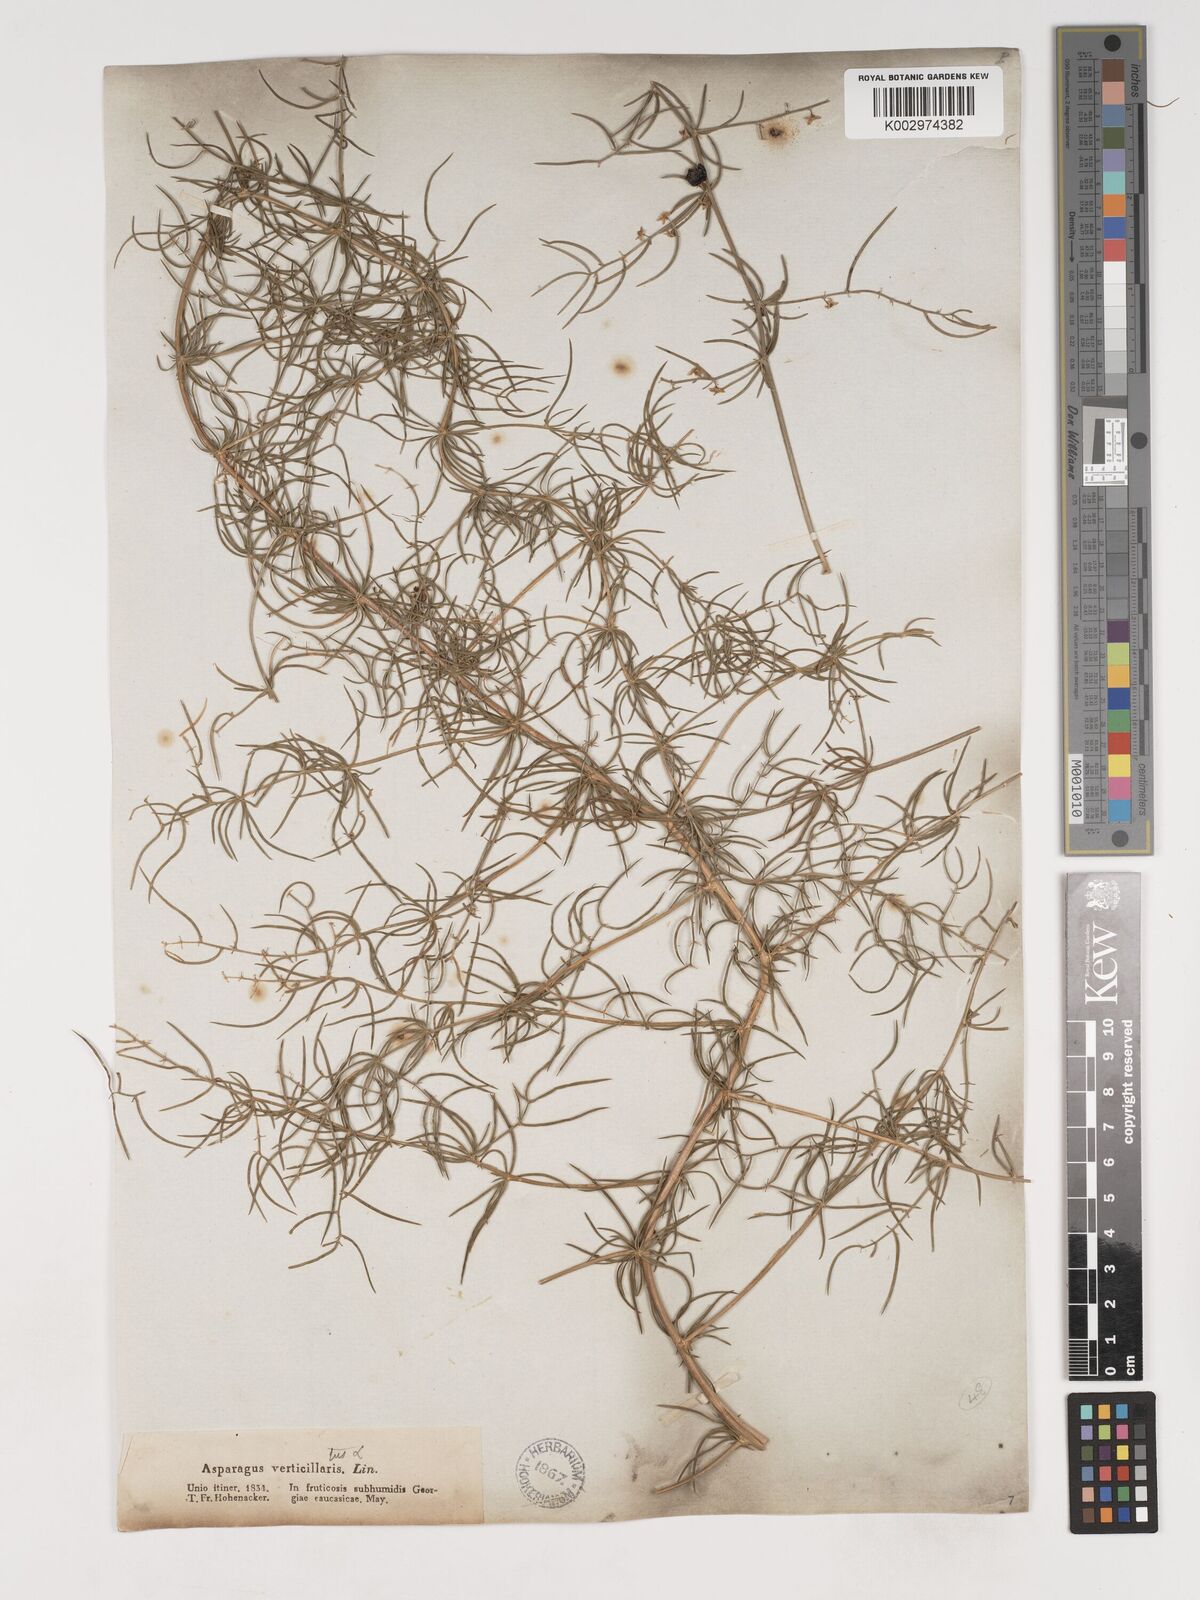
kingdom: Plantae
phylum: Tracheophyta
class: Liliopsida
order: Asparagales
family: Asparagaceae
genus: Asparagus
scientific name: Asparagus verticillatus
